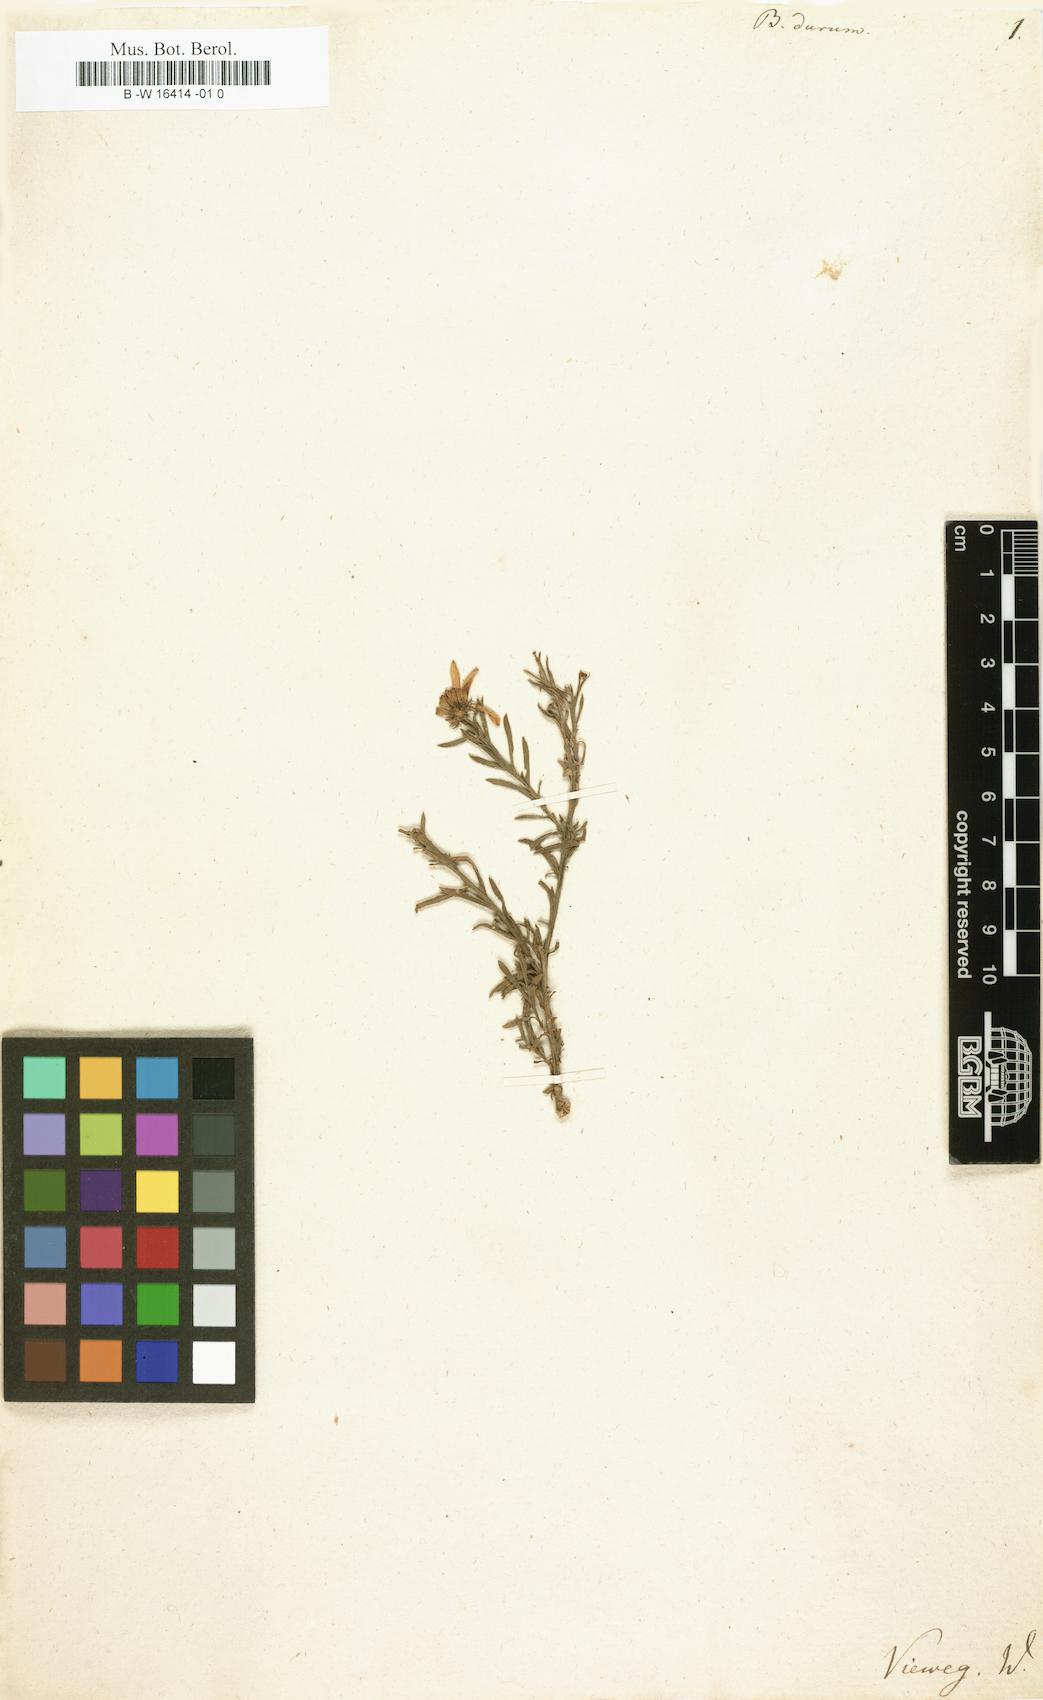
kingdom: Plantae
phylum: Tracheophyta
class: Magnoliopsida
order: Asterales
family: Asteraceae
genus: Osteospermum
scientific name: Osteospermum spinosum
